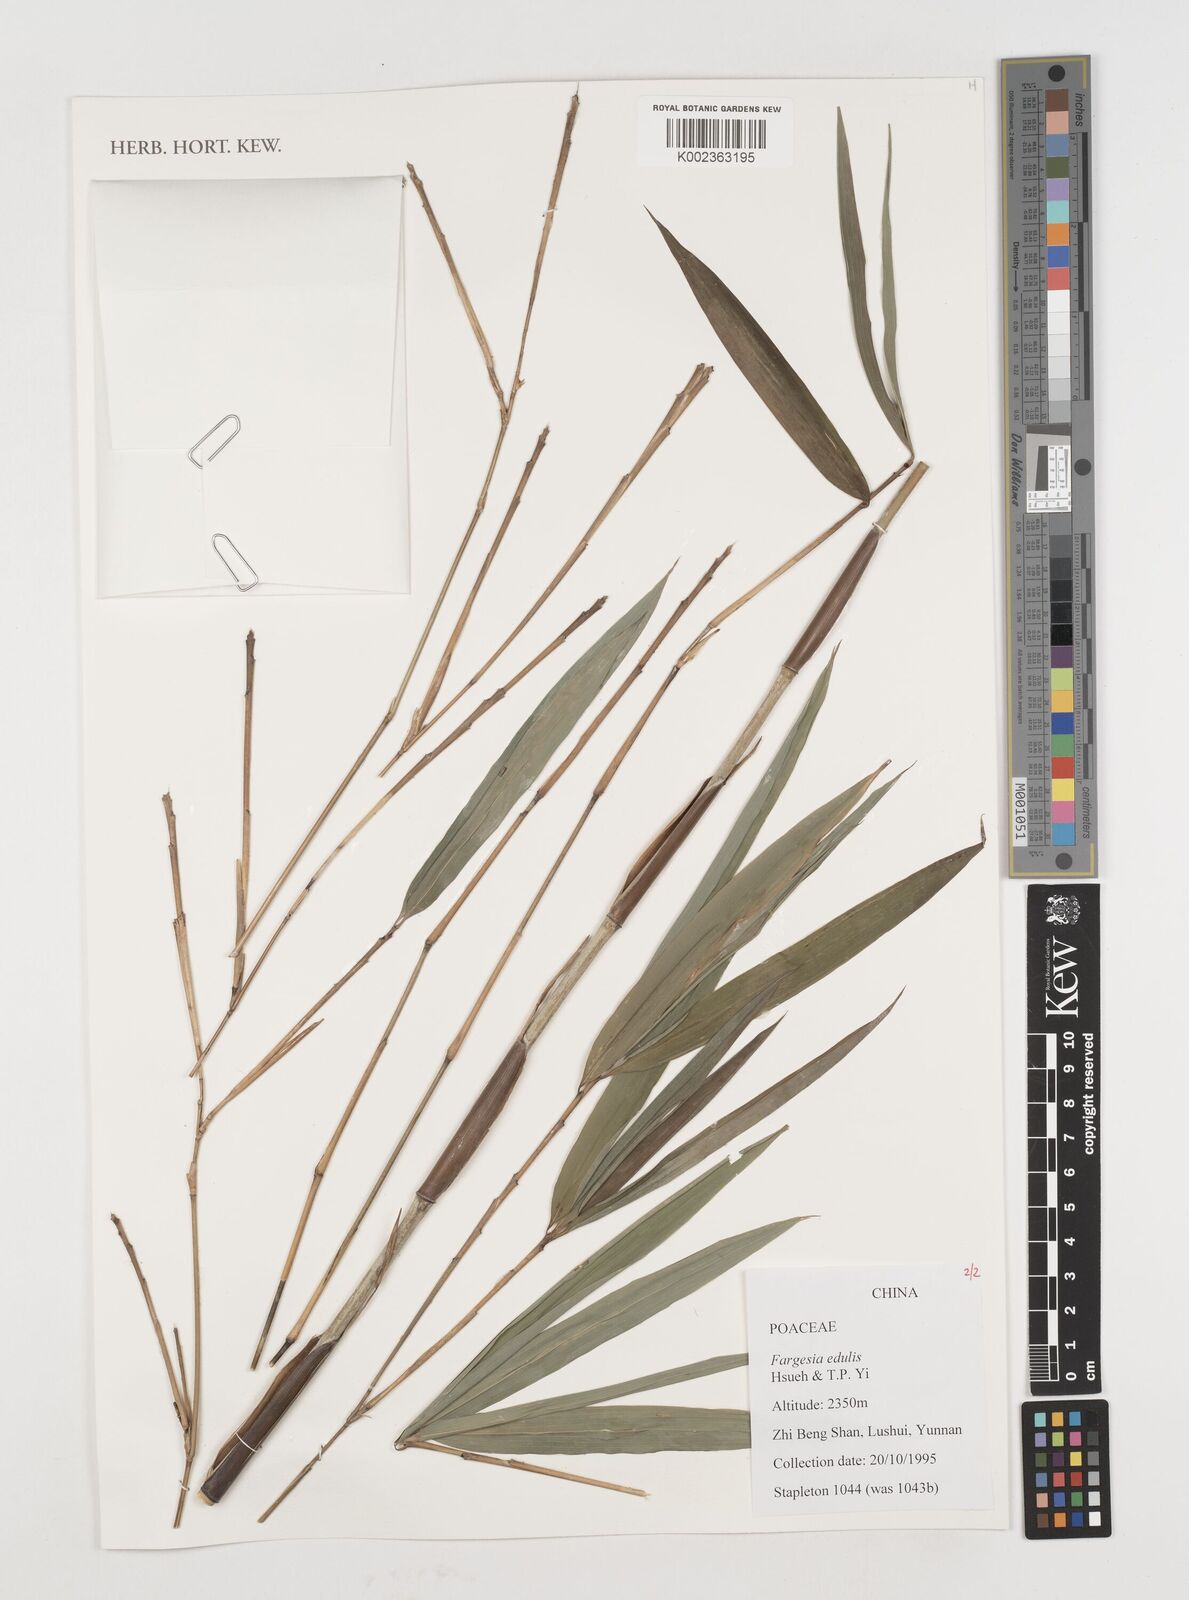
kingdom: Plantae
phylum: Tracheophyta
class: Liliopsida
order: Poales
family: Poaceae
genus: Borinda
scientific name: Borinda edulis
